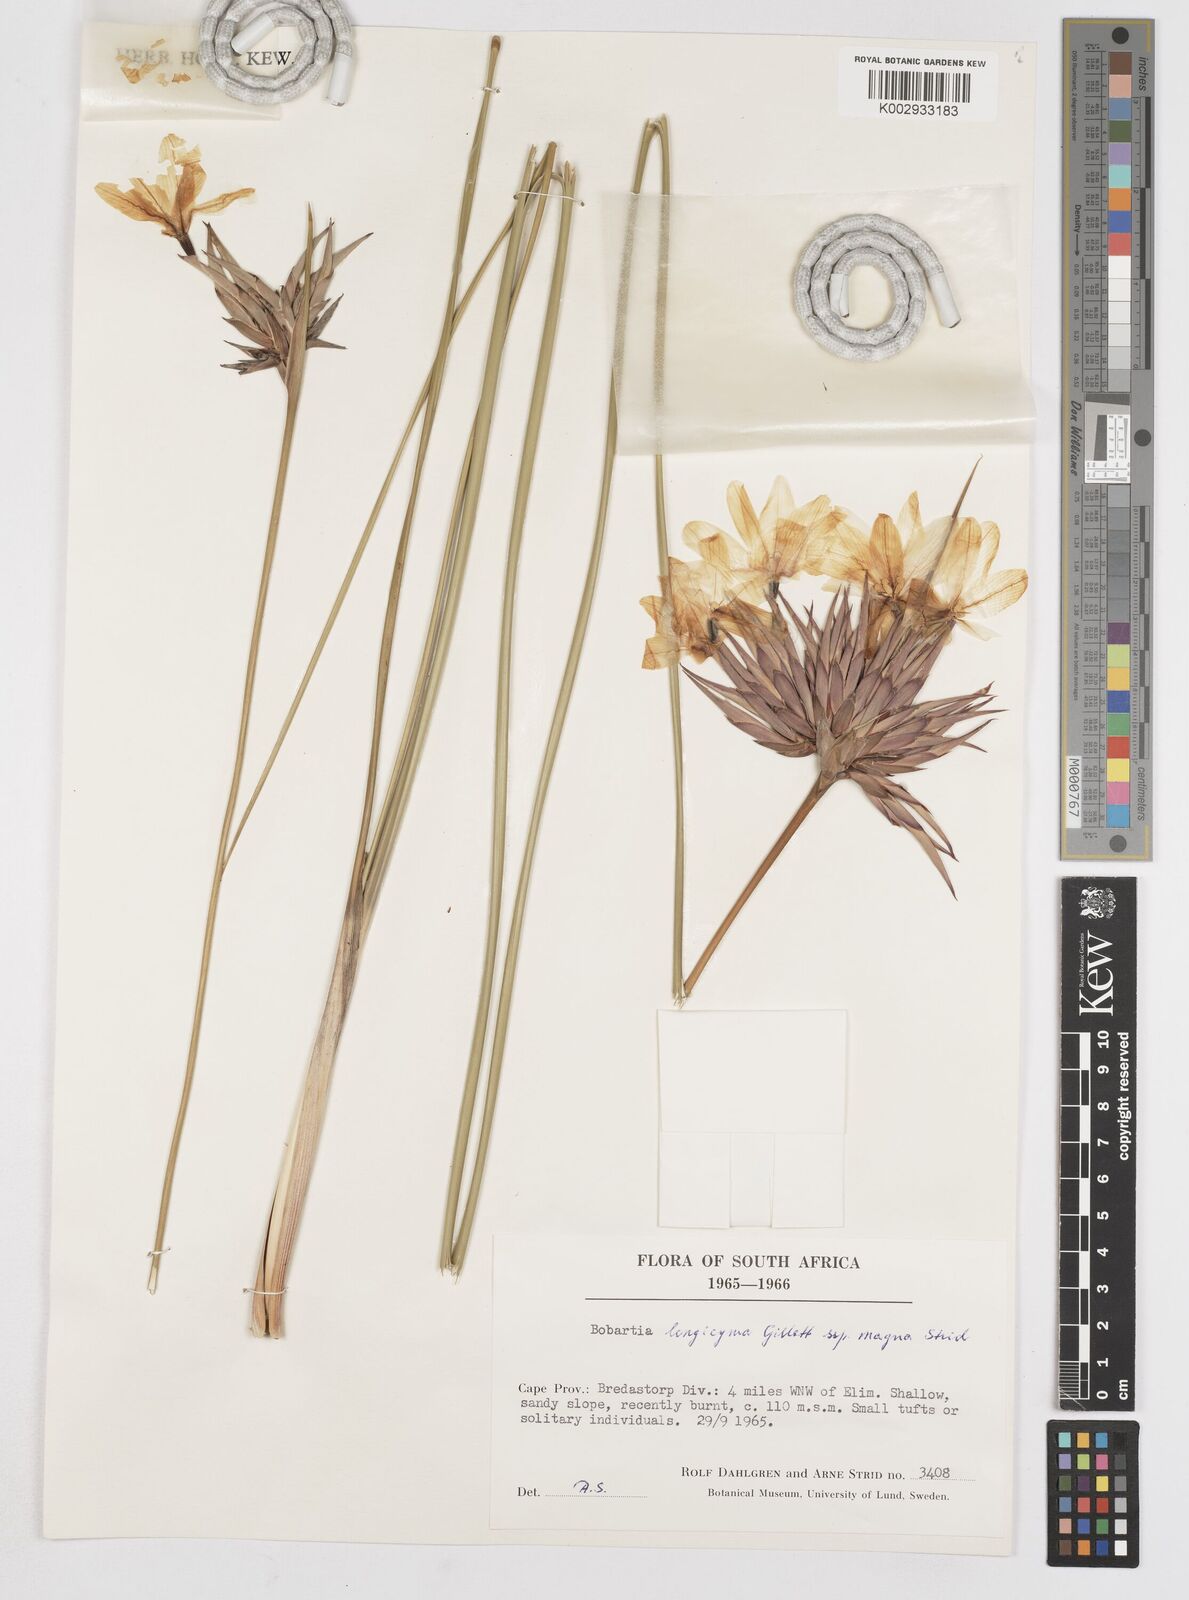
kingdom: Plantae
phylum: Tracheophyta
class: Liliopsida
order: Asparagales
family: Iridaceae
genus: Bobartia
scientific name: Bobartia longicyma
